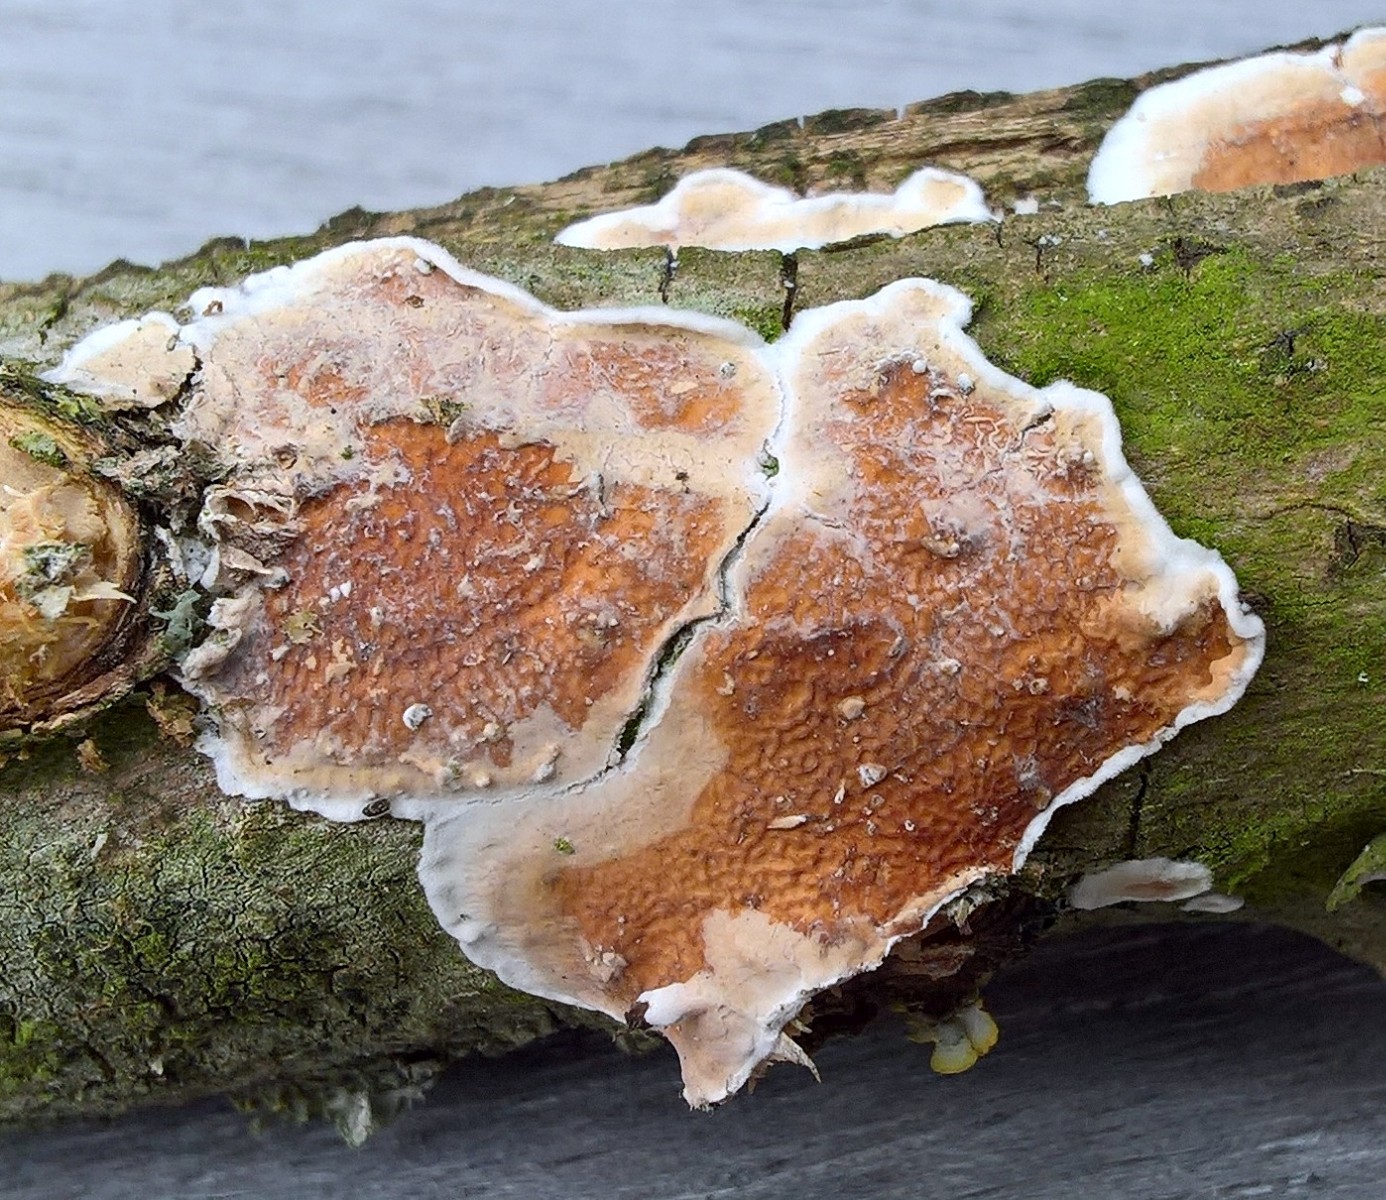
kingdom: Fungi
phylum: Basidiomycota
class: Agaricomycetes
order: Polyporales
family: Irpicaceae
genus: Byssomerulius
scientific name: Byssomerulius corium
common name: læder-åresvamp
